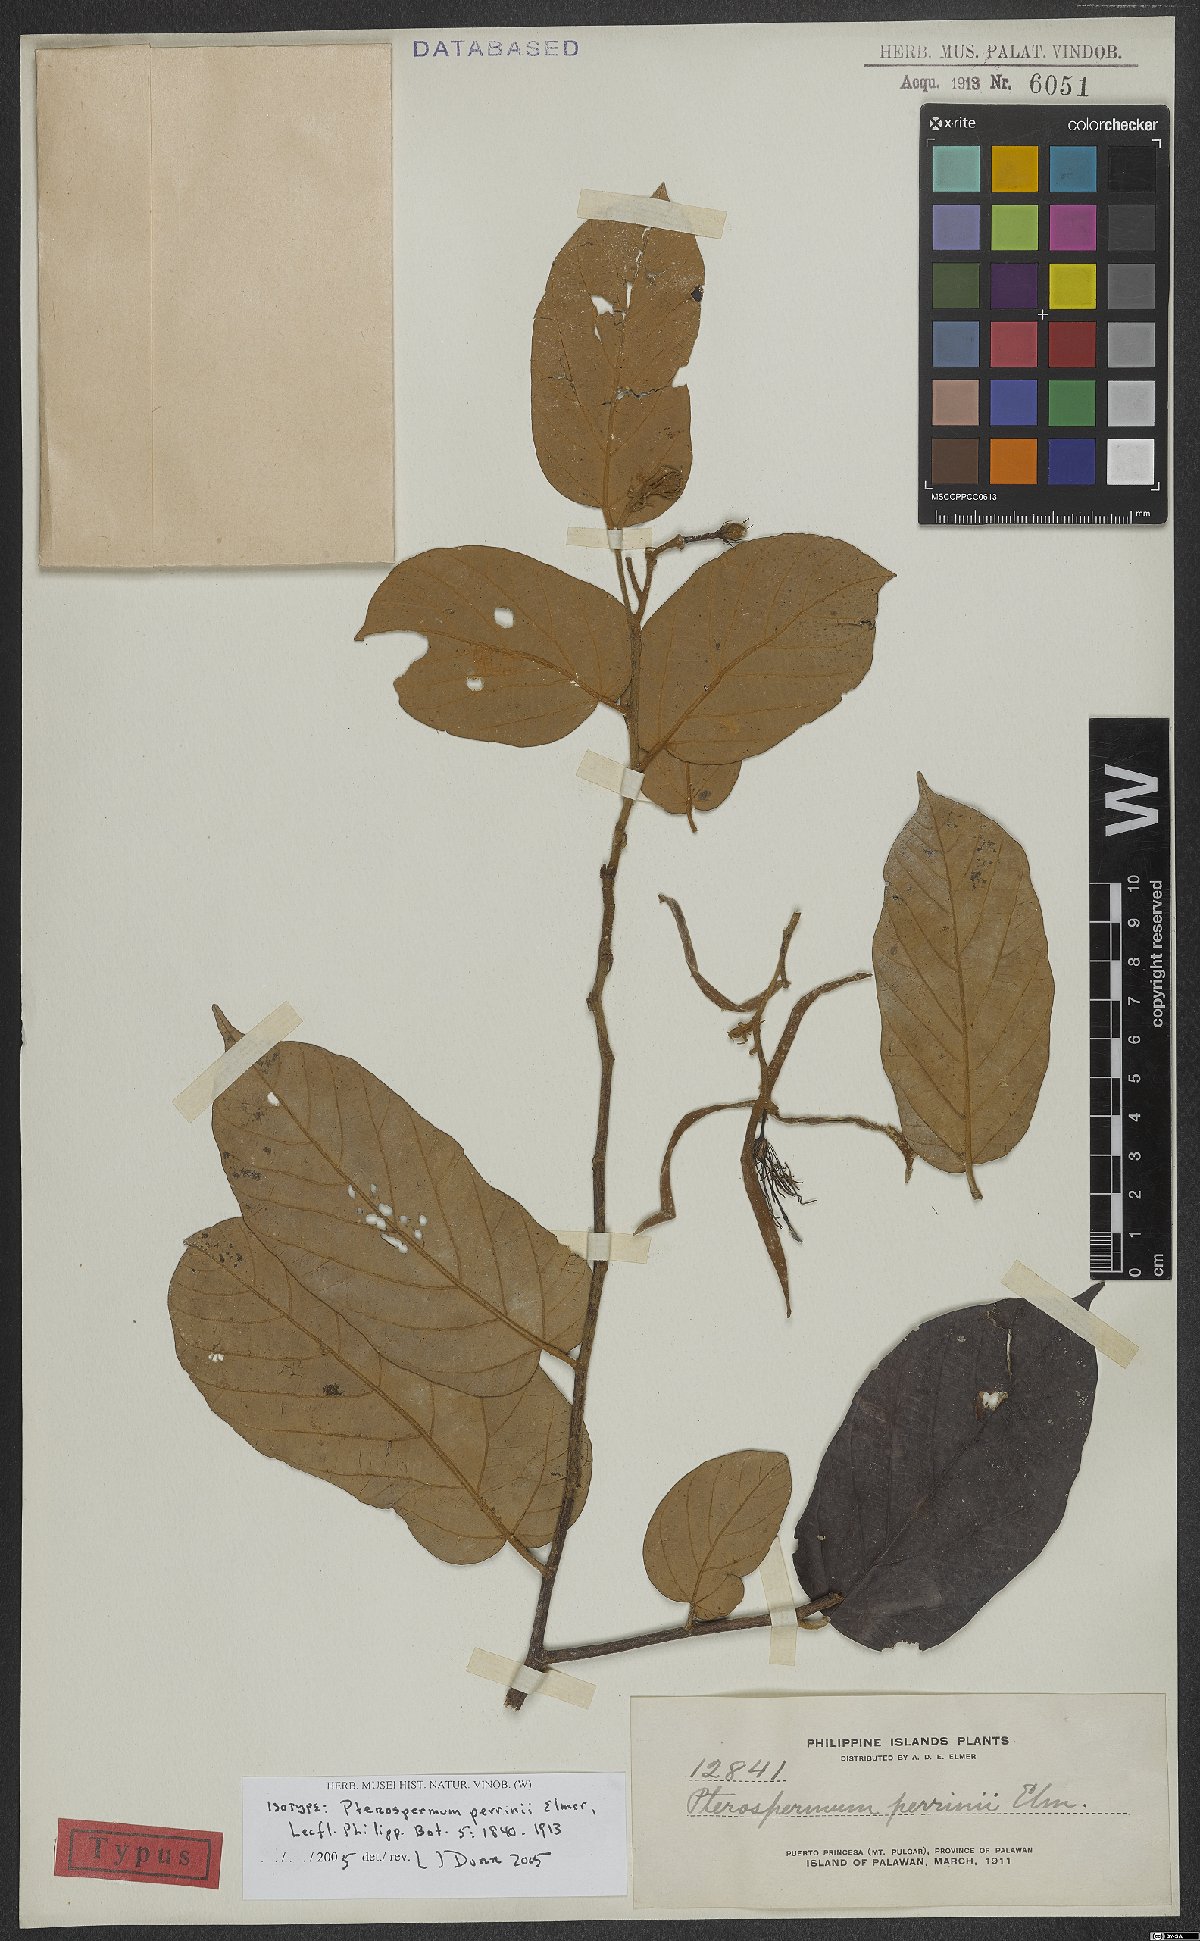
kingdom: Plantae
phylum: Tracheophyta
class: Magnoliopsida
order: Malvales
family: Malvaceae
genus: Pterospermum
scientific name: Pterospermum elongatum
